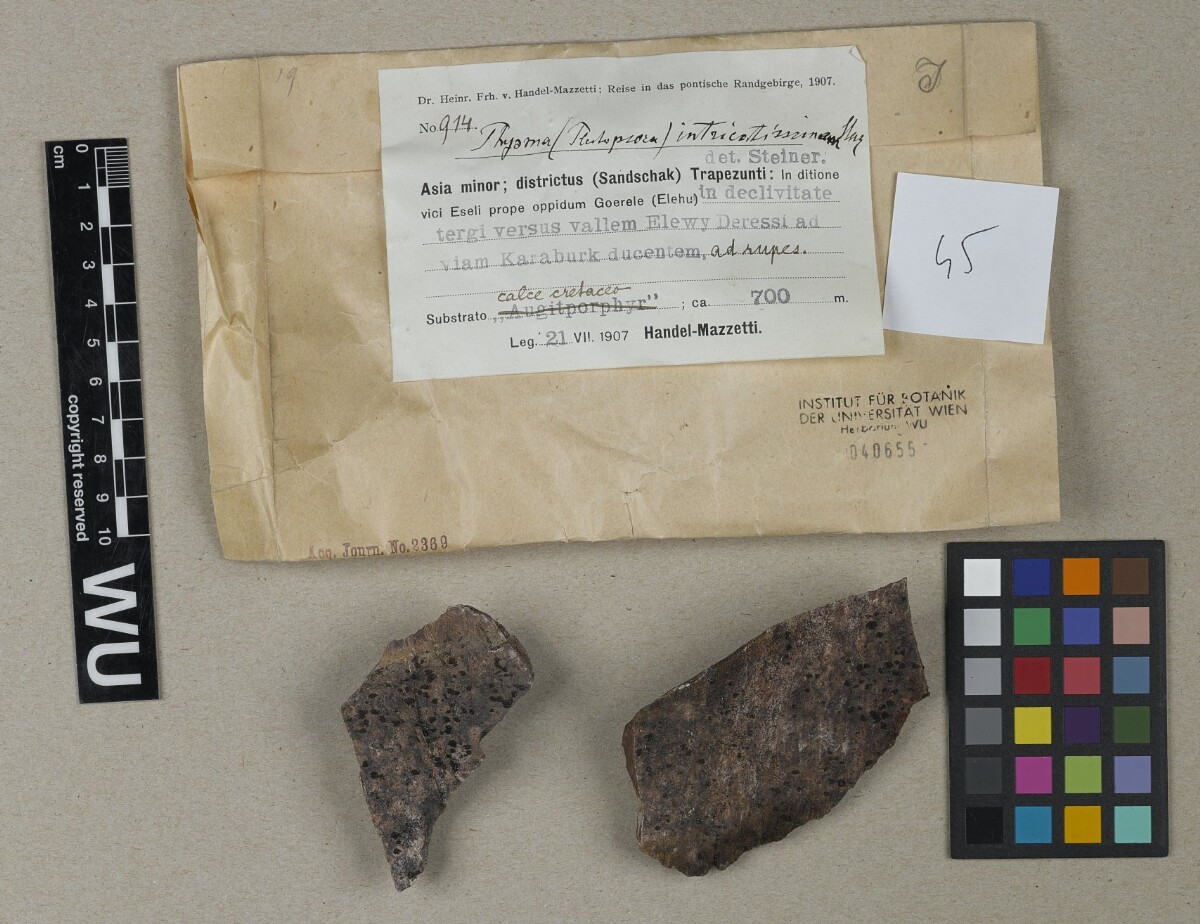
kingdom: Fungi
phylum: Ascomycota
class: Lecanoromycetes
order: Peltigerales
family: Collemataceae
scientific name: Collemataceae
